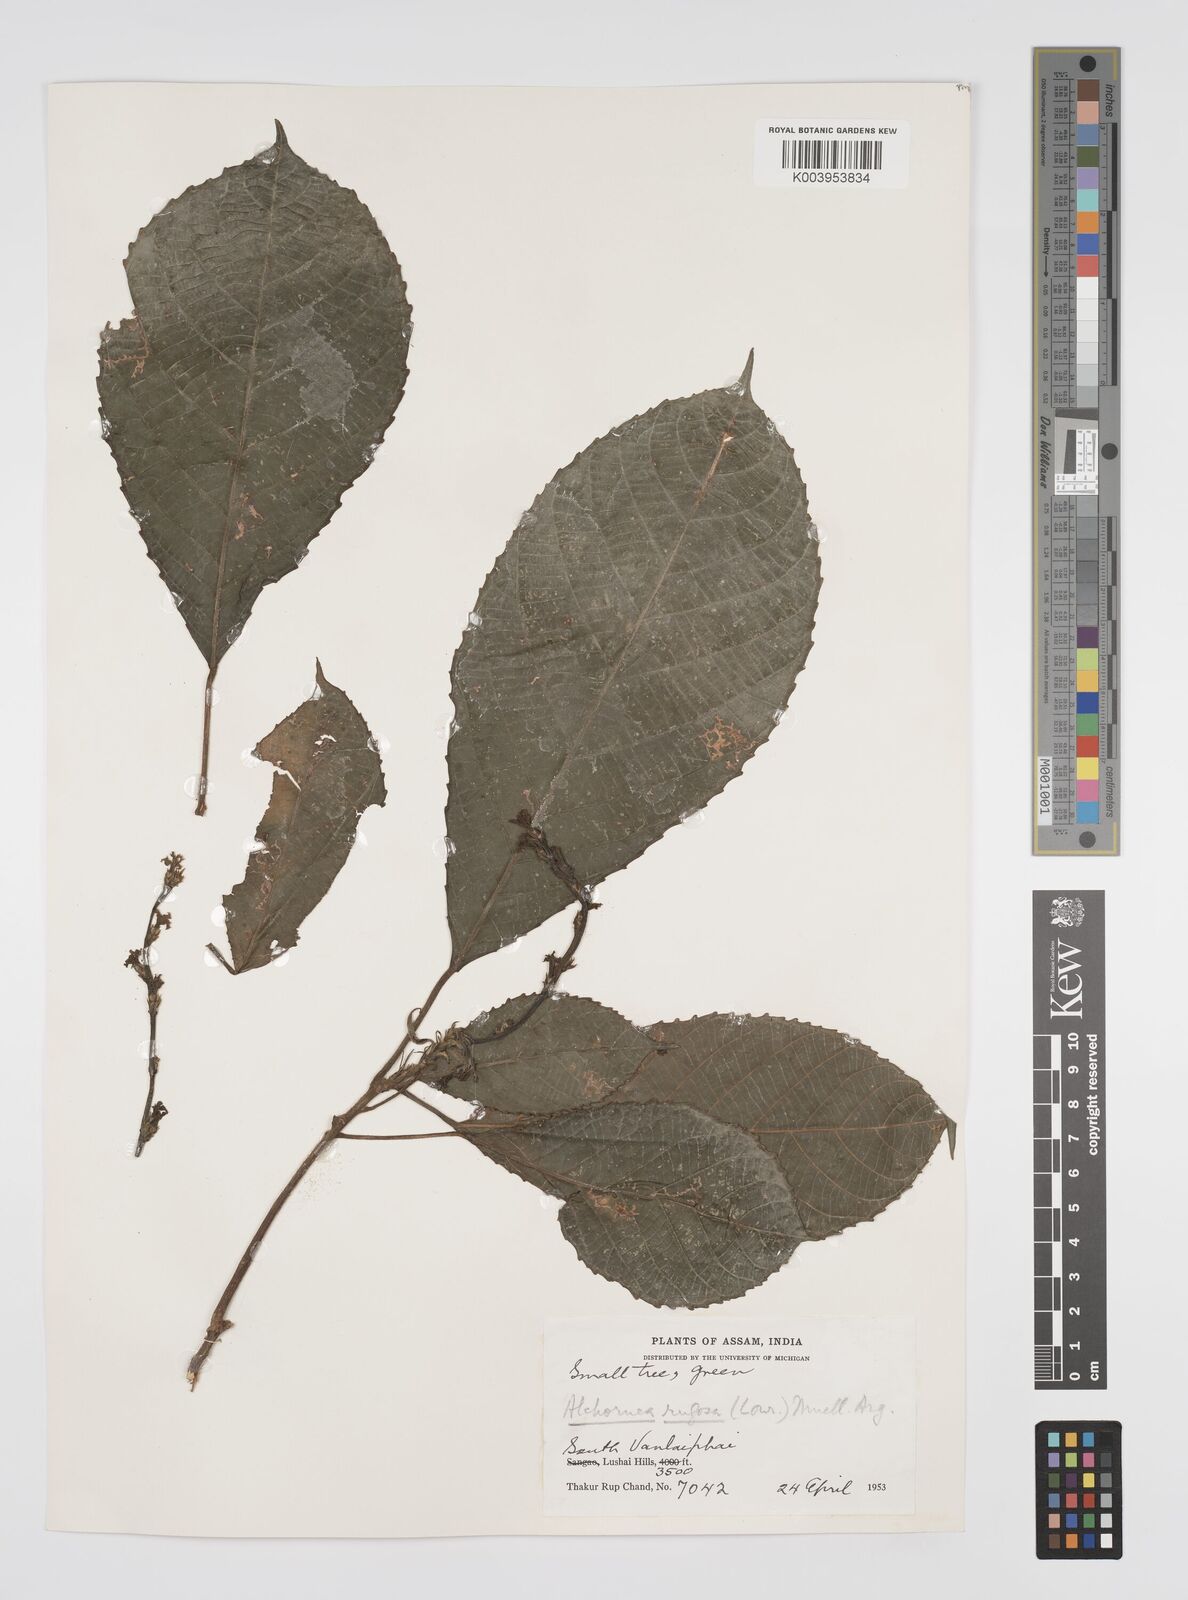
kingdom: Plantae
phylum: Tracheophyta
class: Magnoliopsida
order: Malpighiales
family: Euphorbiaceae
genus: Alchornea
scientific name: Alchornea rugosa
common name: Alchorntree
